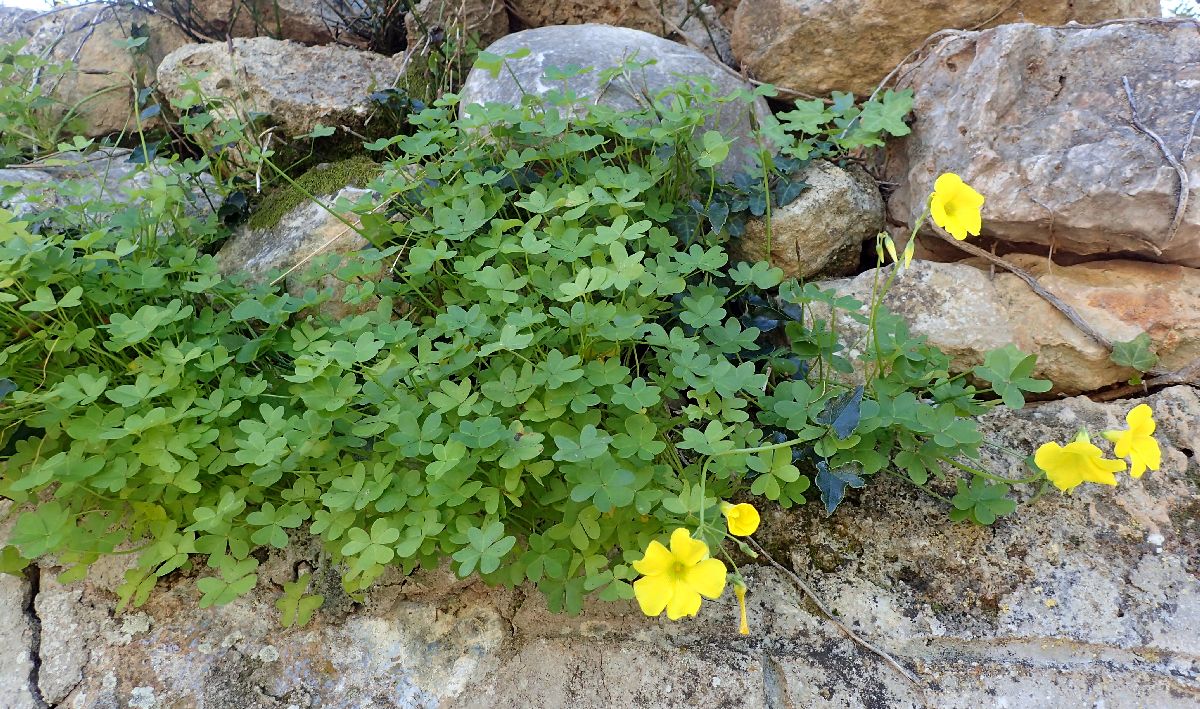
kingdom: Plantae
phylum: Tracheophyta
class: Magnoliopsida
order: Oxalidales
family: Oxalidaceae
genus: Oxalis
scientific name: Oxalis pes-caprae
